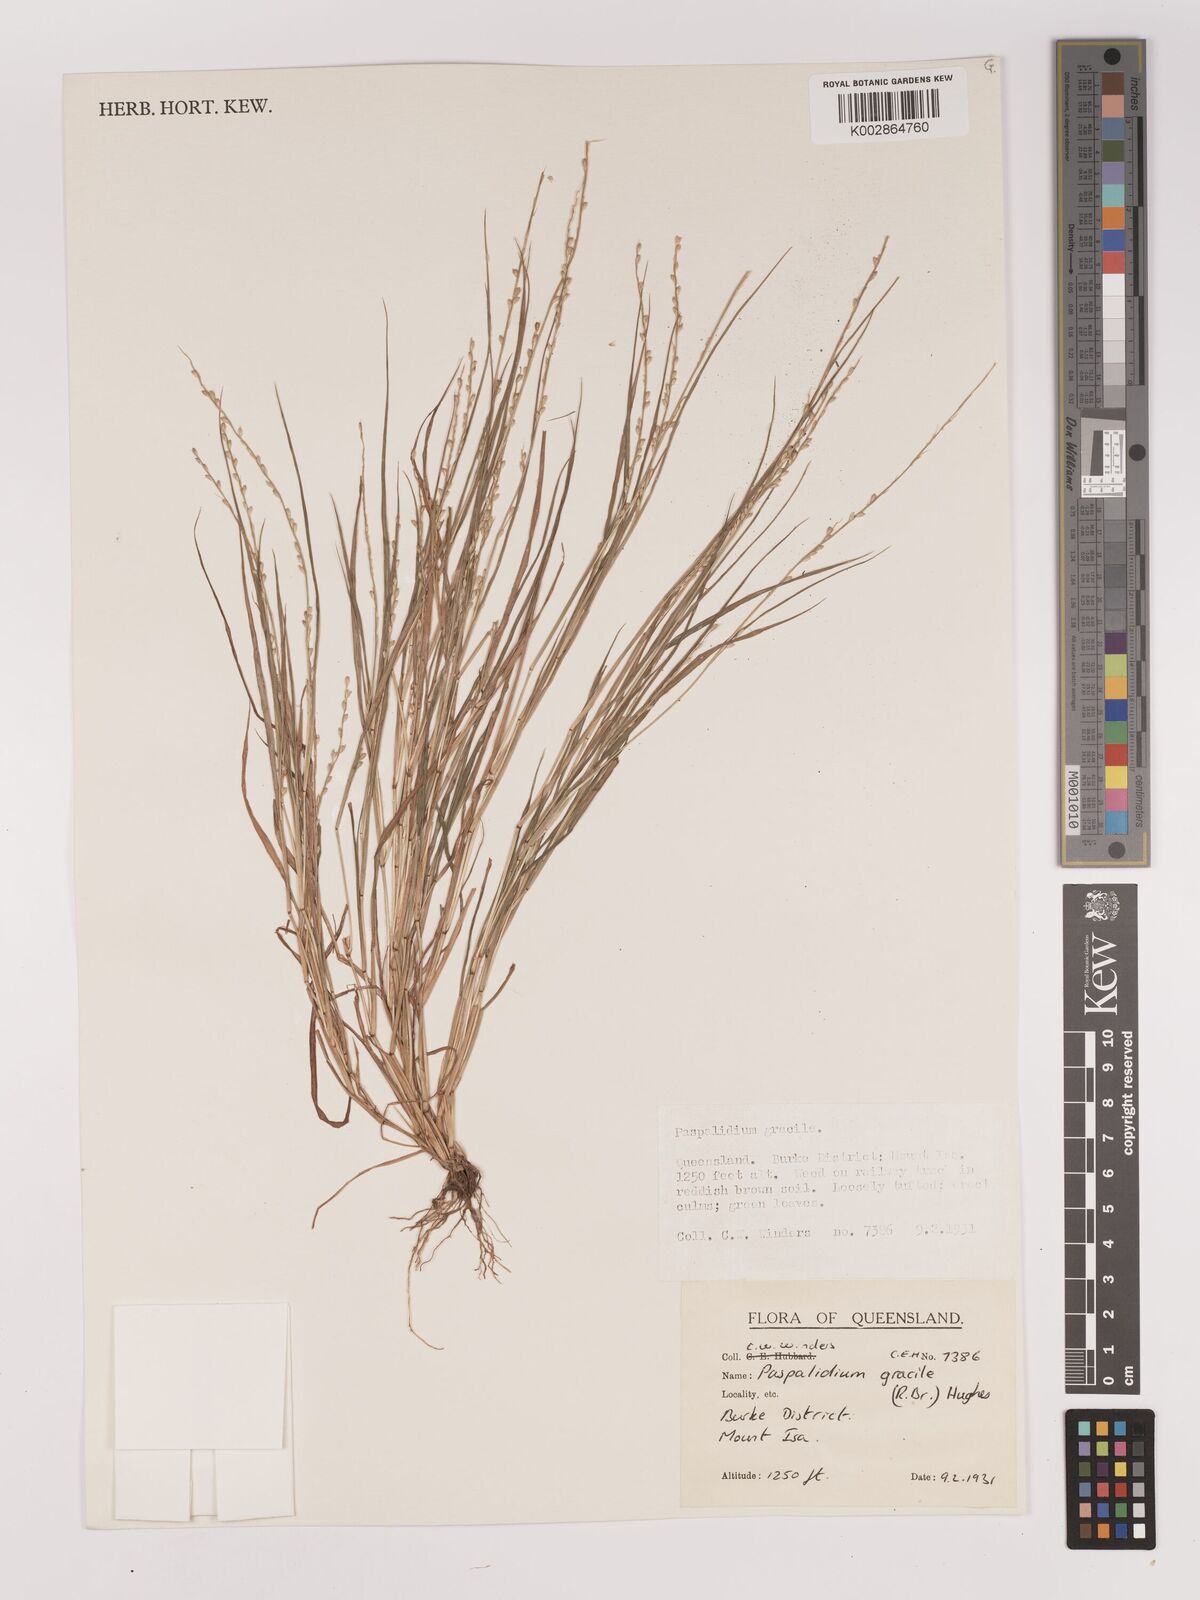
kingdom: Plantae
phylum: Tracheophyta
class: Liliopsida
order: Poales
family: Poaceae
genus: Setaria
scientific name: Setaria brownii
